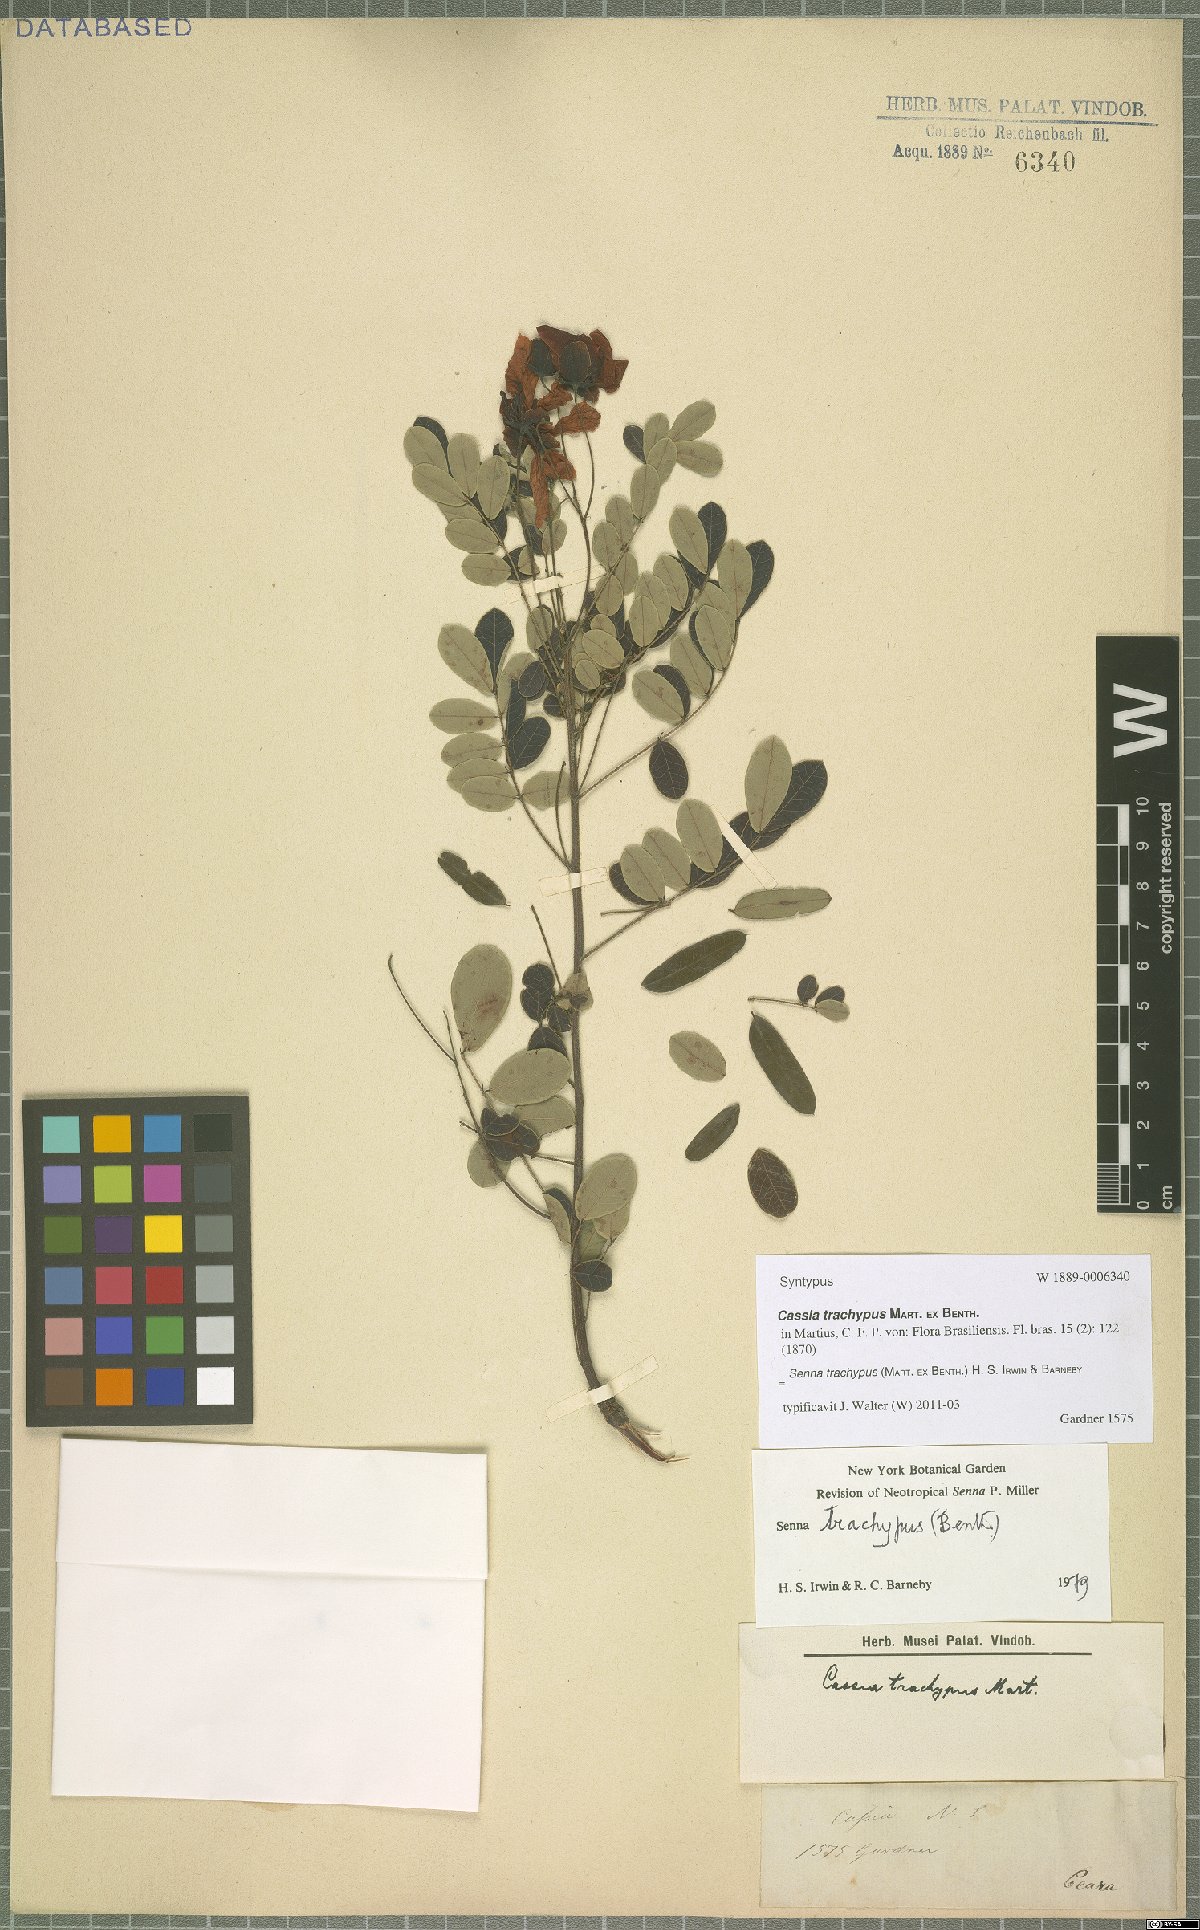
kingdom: Plantae
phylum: Tracheophyta
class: Magnoliopsida
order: Fabales
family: Fabaceae
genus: Senna
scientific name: Senna trachypus
